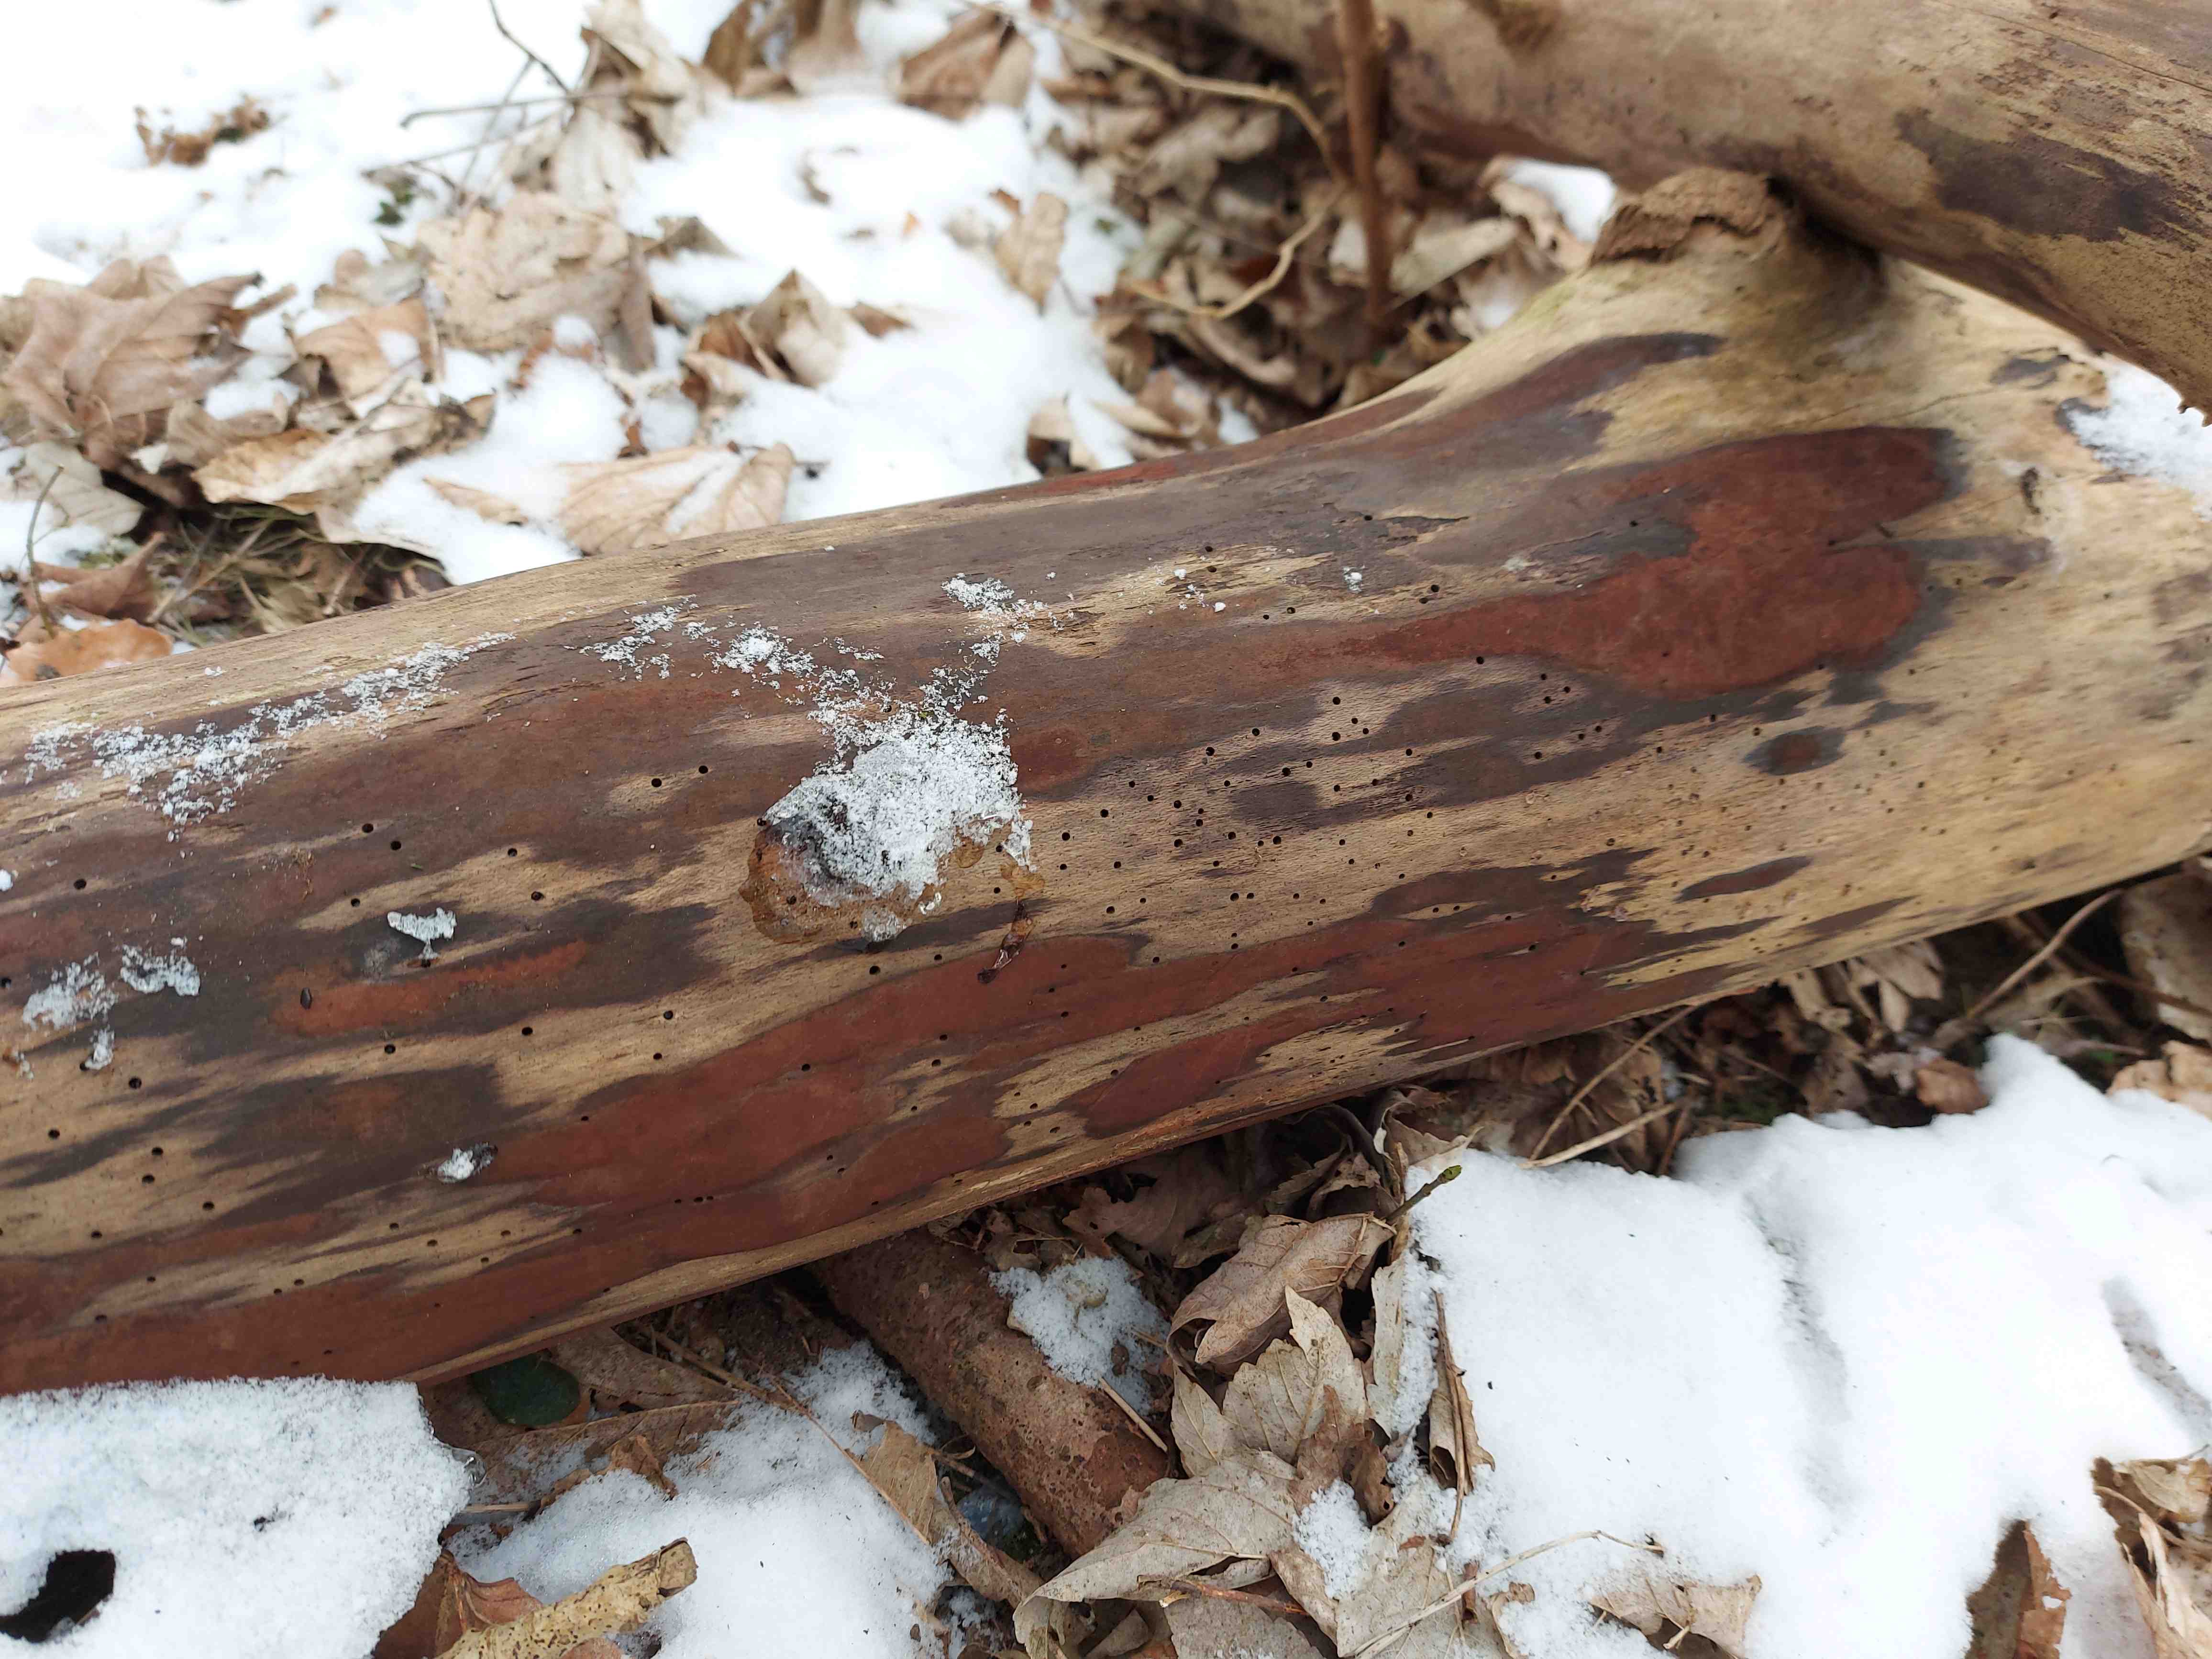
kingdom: Fungi
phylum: Ascomycota
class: Sordariomycetes
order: Xylariales
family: Hypoxylaceae
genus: Hypoxylon
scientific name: Hypoxylon macrocarpum
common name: skorpe-kulbær
